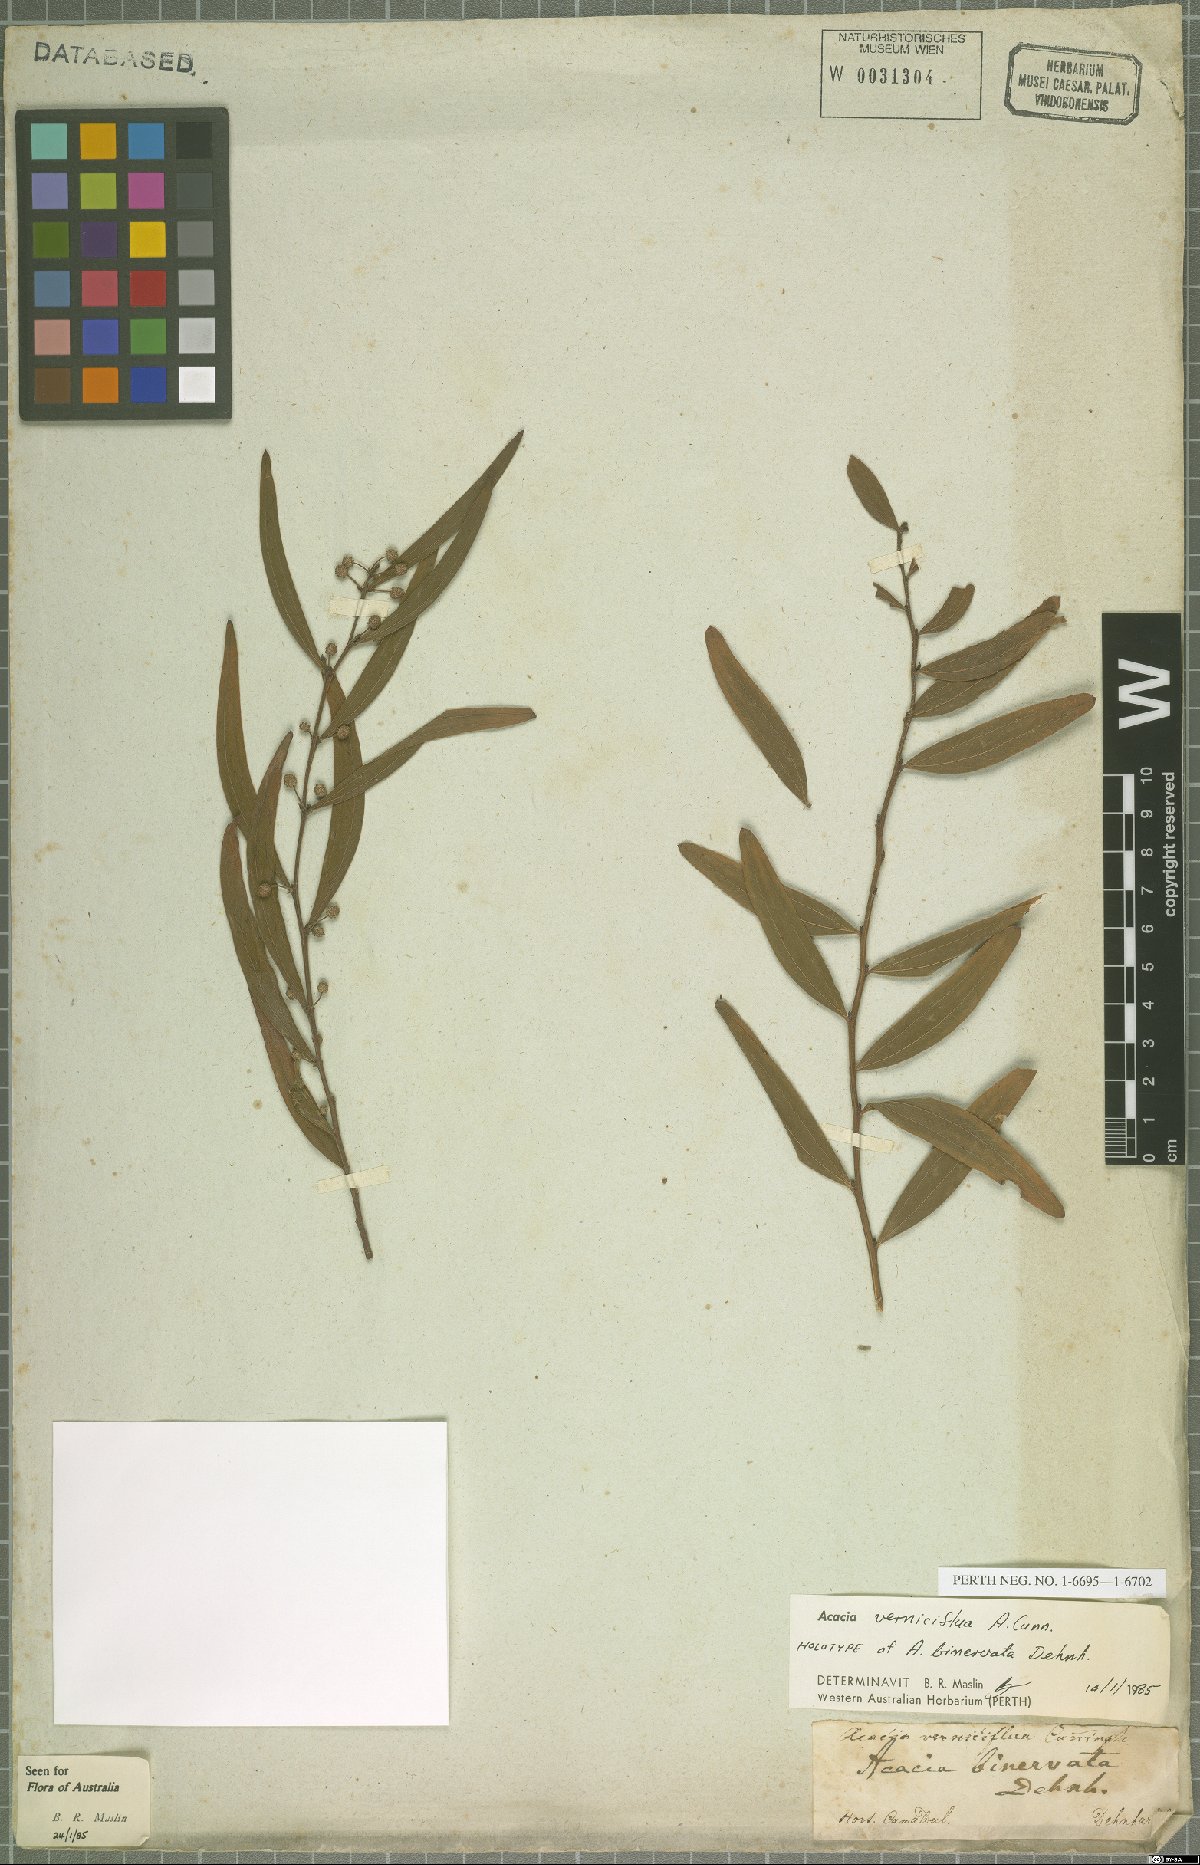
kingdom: Plantae
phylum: Tracheophyta
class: Magnoliopsida
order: Fabales
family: Fabaceae
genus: Acacia
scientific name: Acacia verniciflua
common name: Varnish wattle
